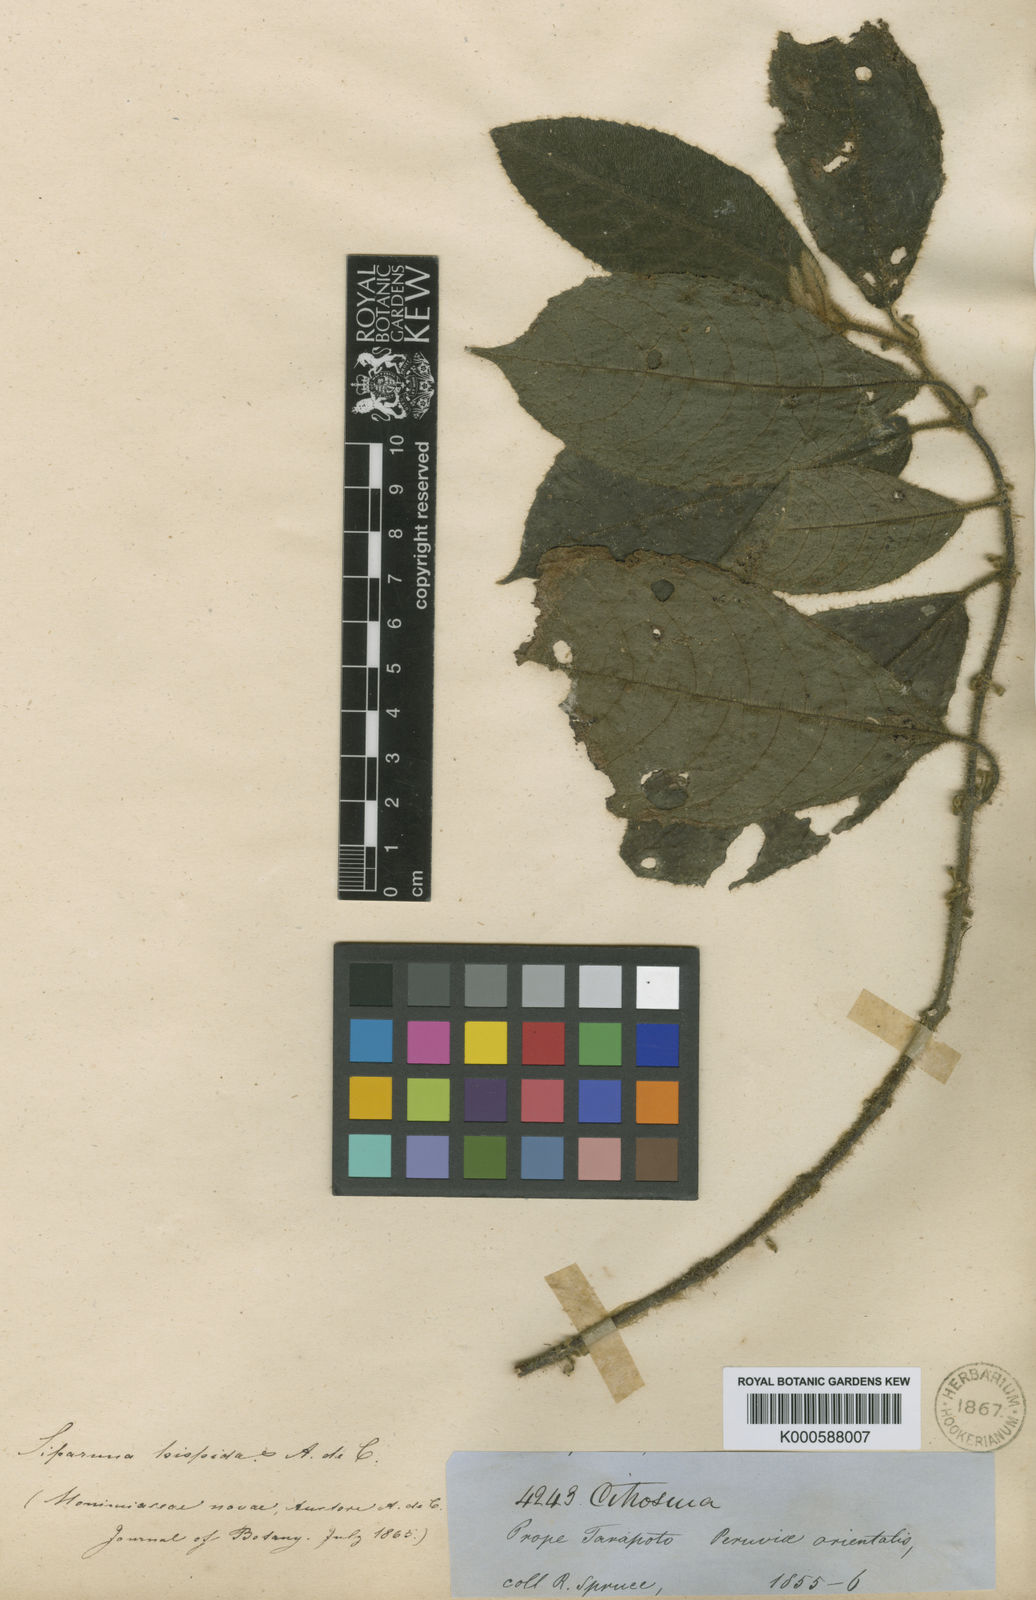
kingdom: Plantae
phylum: Tracheophyta
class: Magnoliopsida
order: Laurales
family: Siparunaceae
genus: Siparuna
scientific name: Siparuna grandiflora
